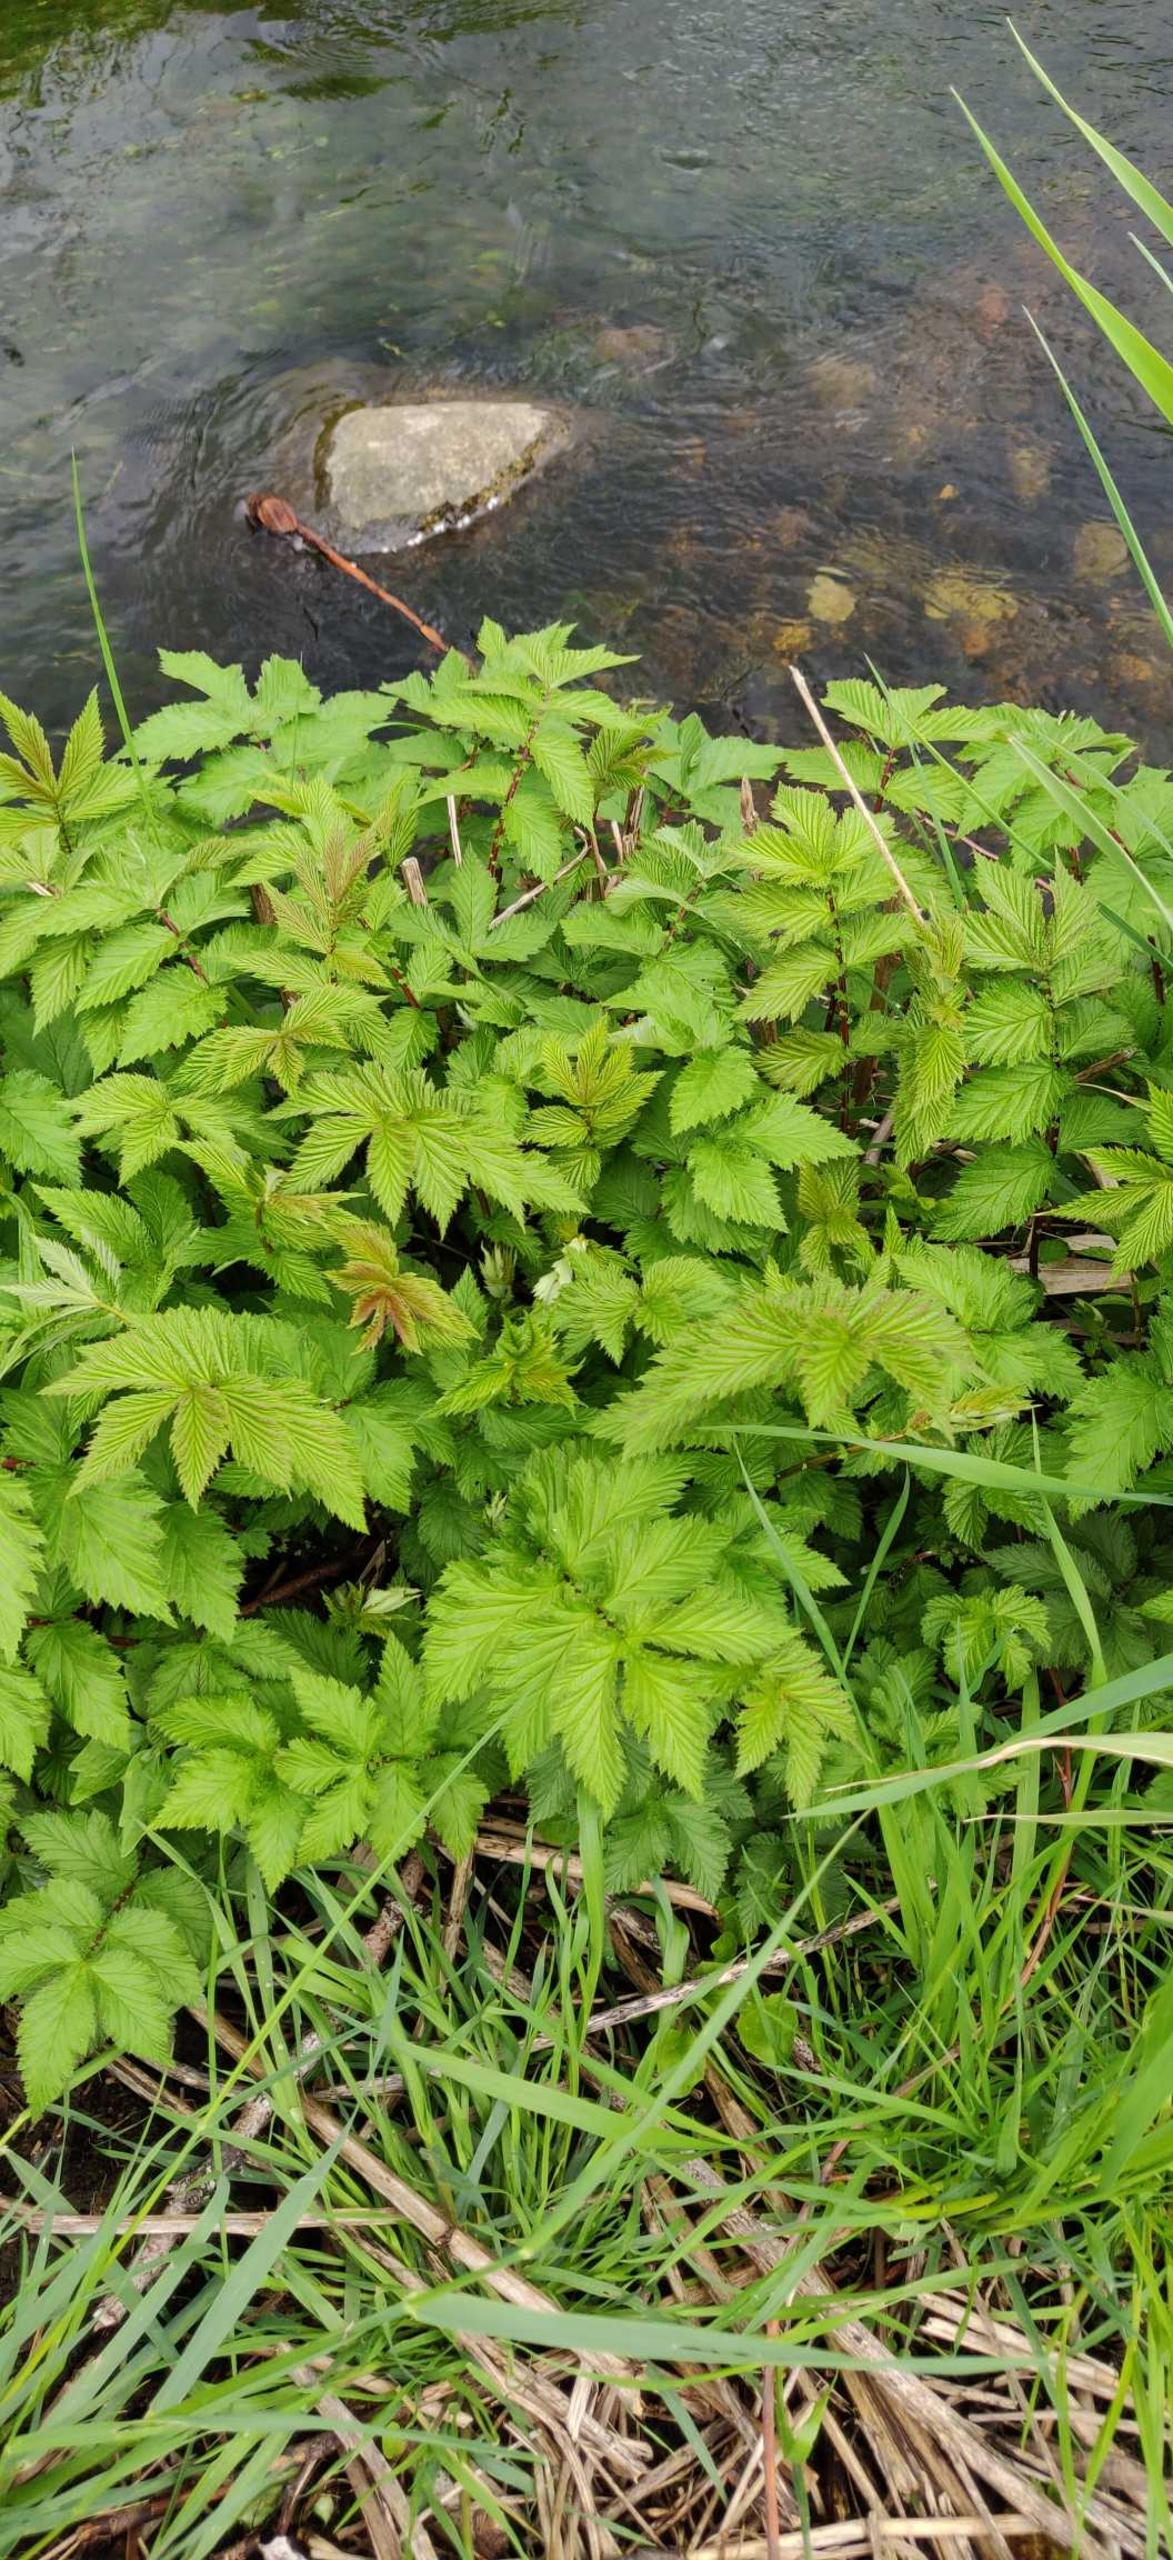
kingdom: Plantae
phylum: Tracheophyta
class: Magnoliopsida
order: Rosales
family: Rosaceae
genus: Filipendula
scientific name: Filipendula ulmaria
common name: Almindelig mjødurt
